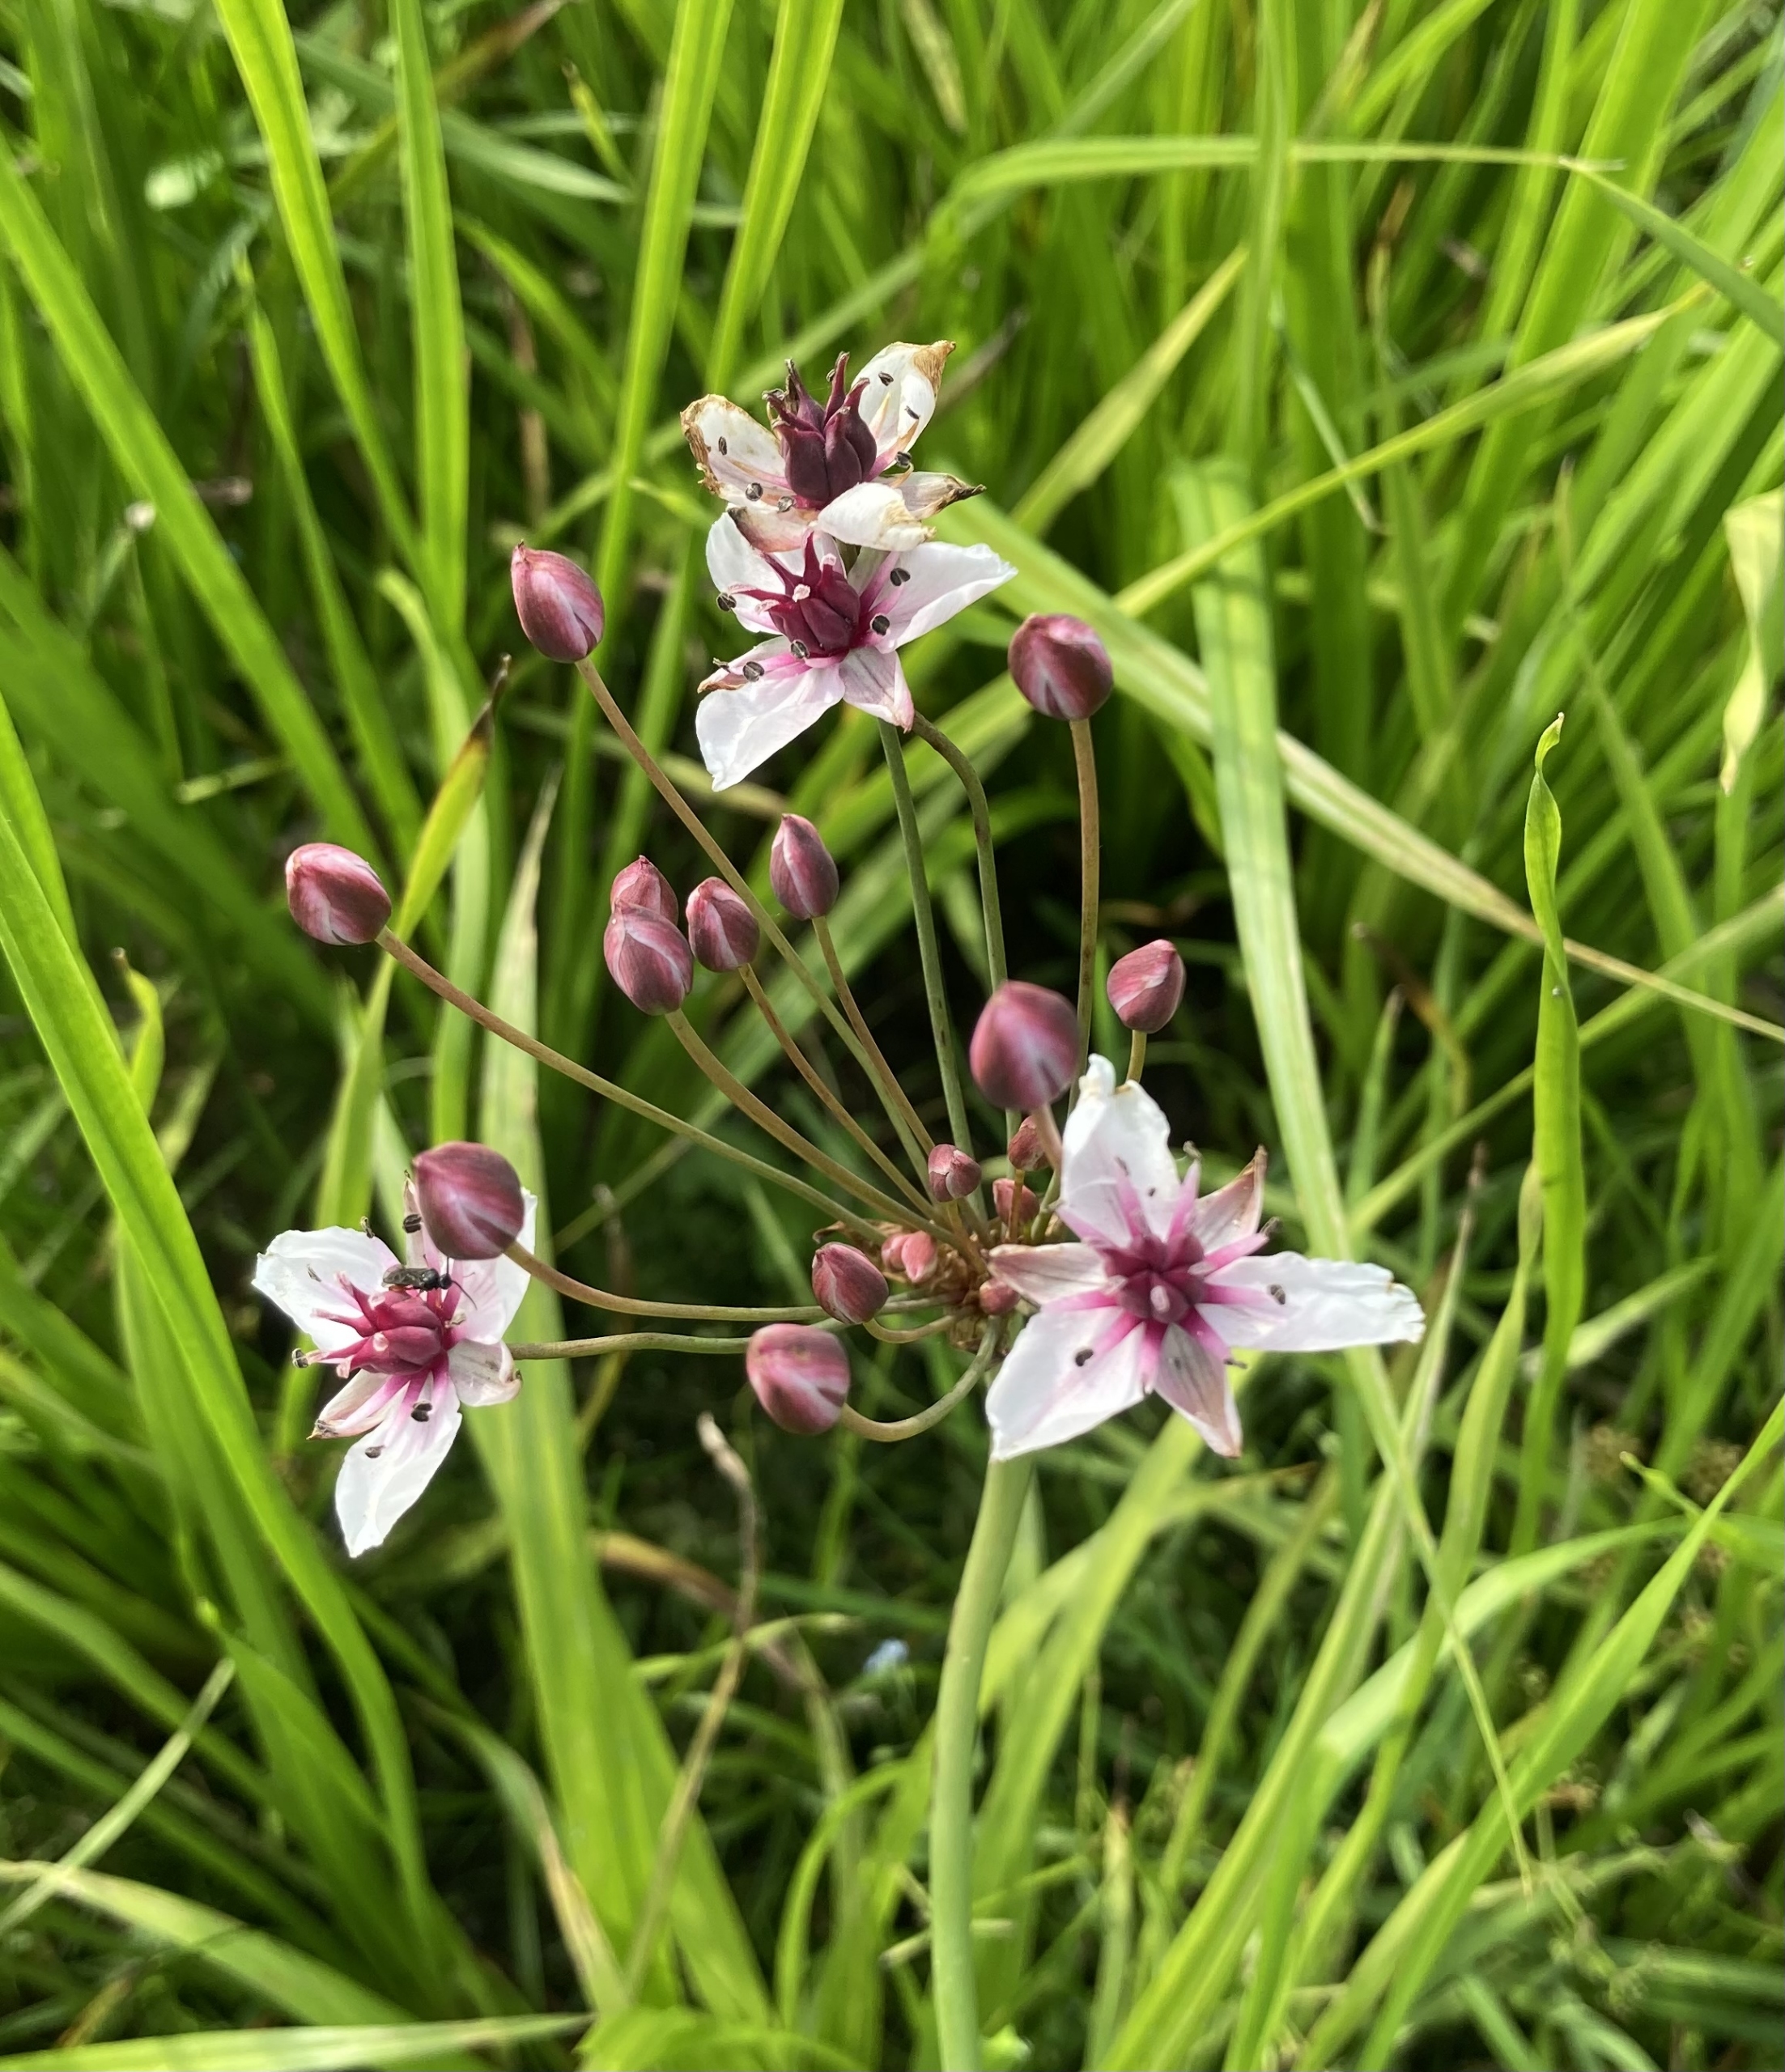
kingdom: Plantae
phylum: Tracheophyta
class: Liliopsida
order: Alismatales
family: Butomaceae
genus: Butomus
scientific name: Butomus umbellatus
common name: Brudelys
